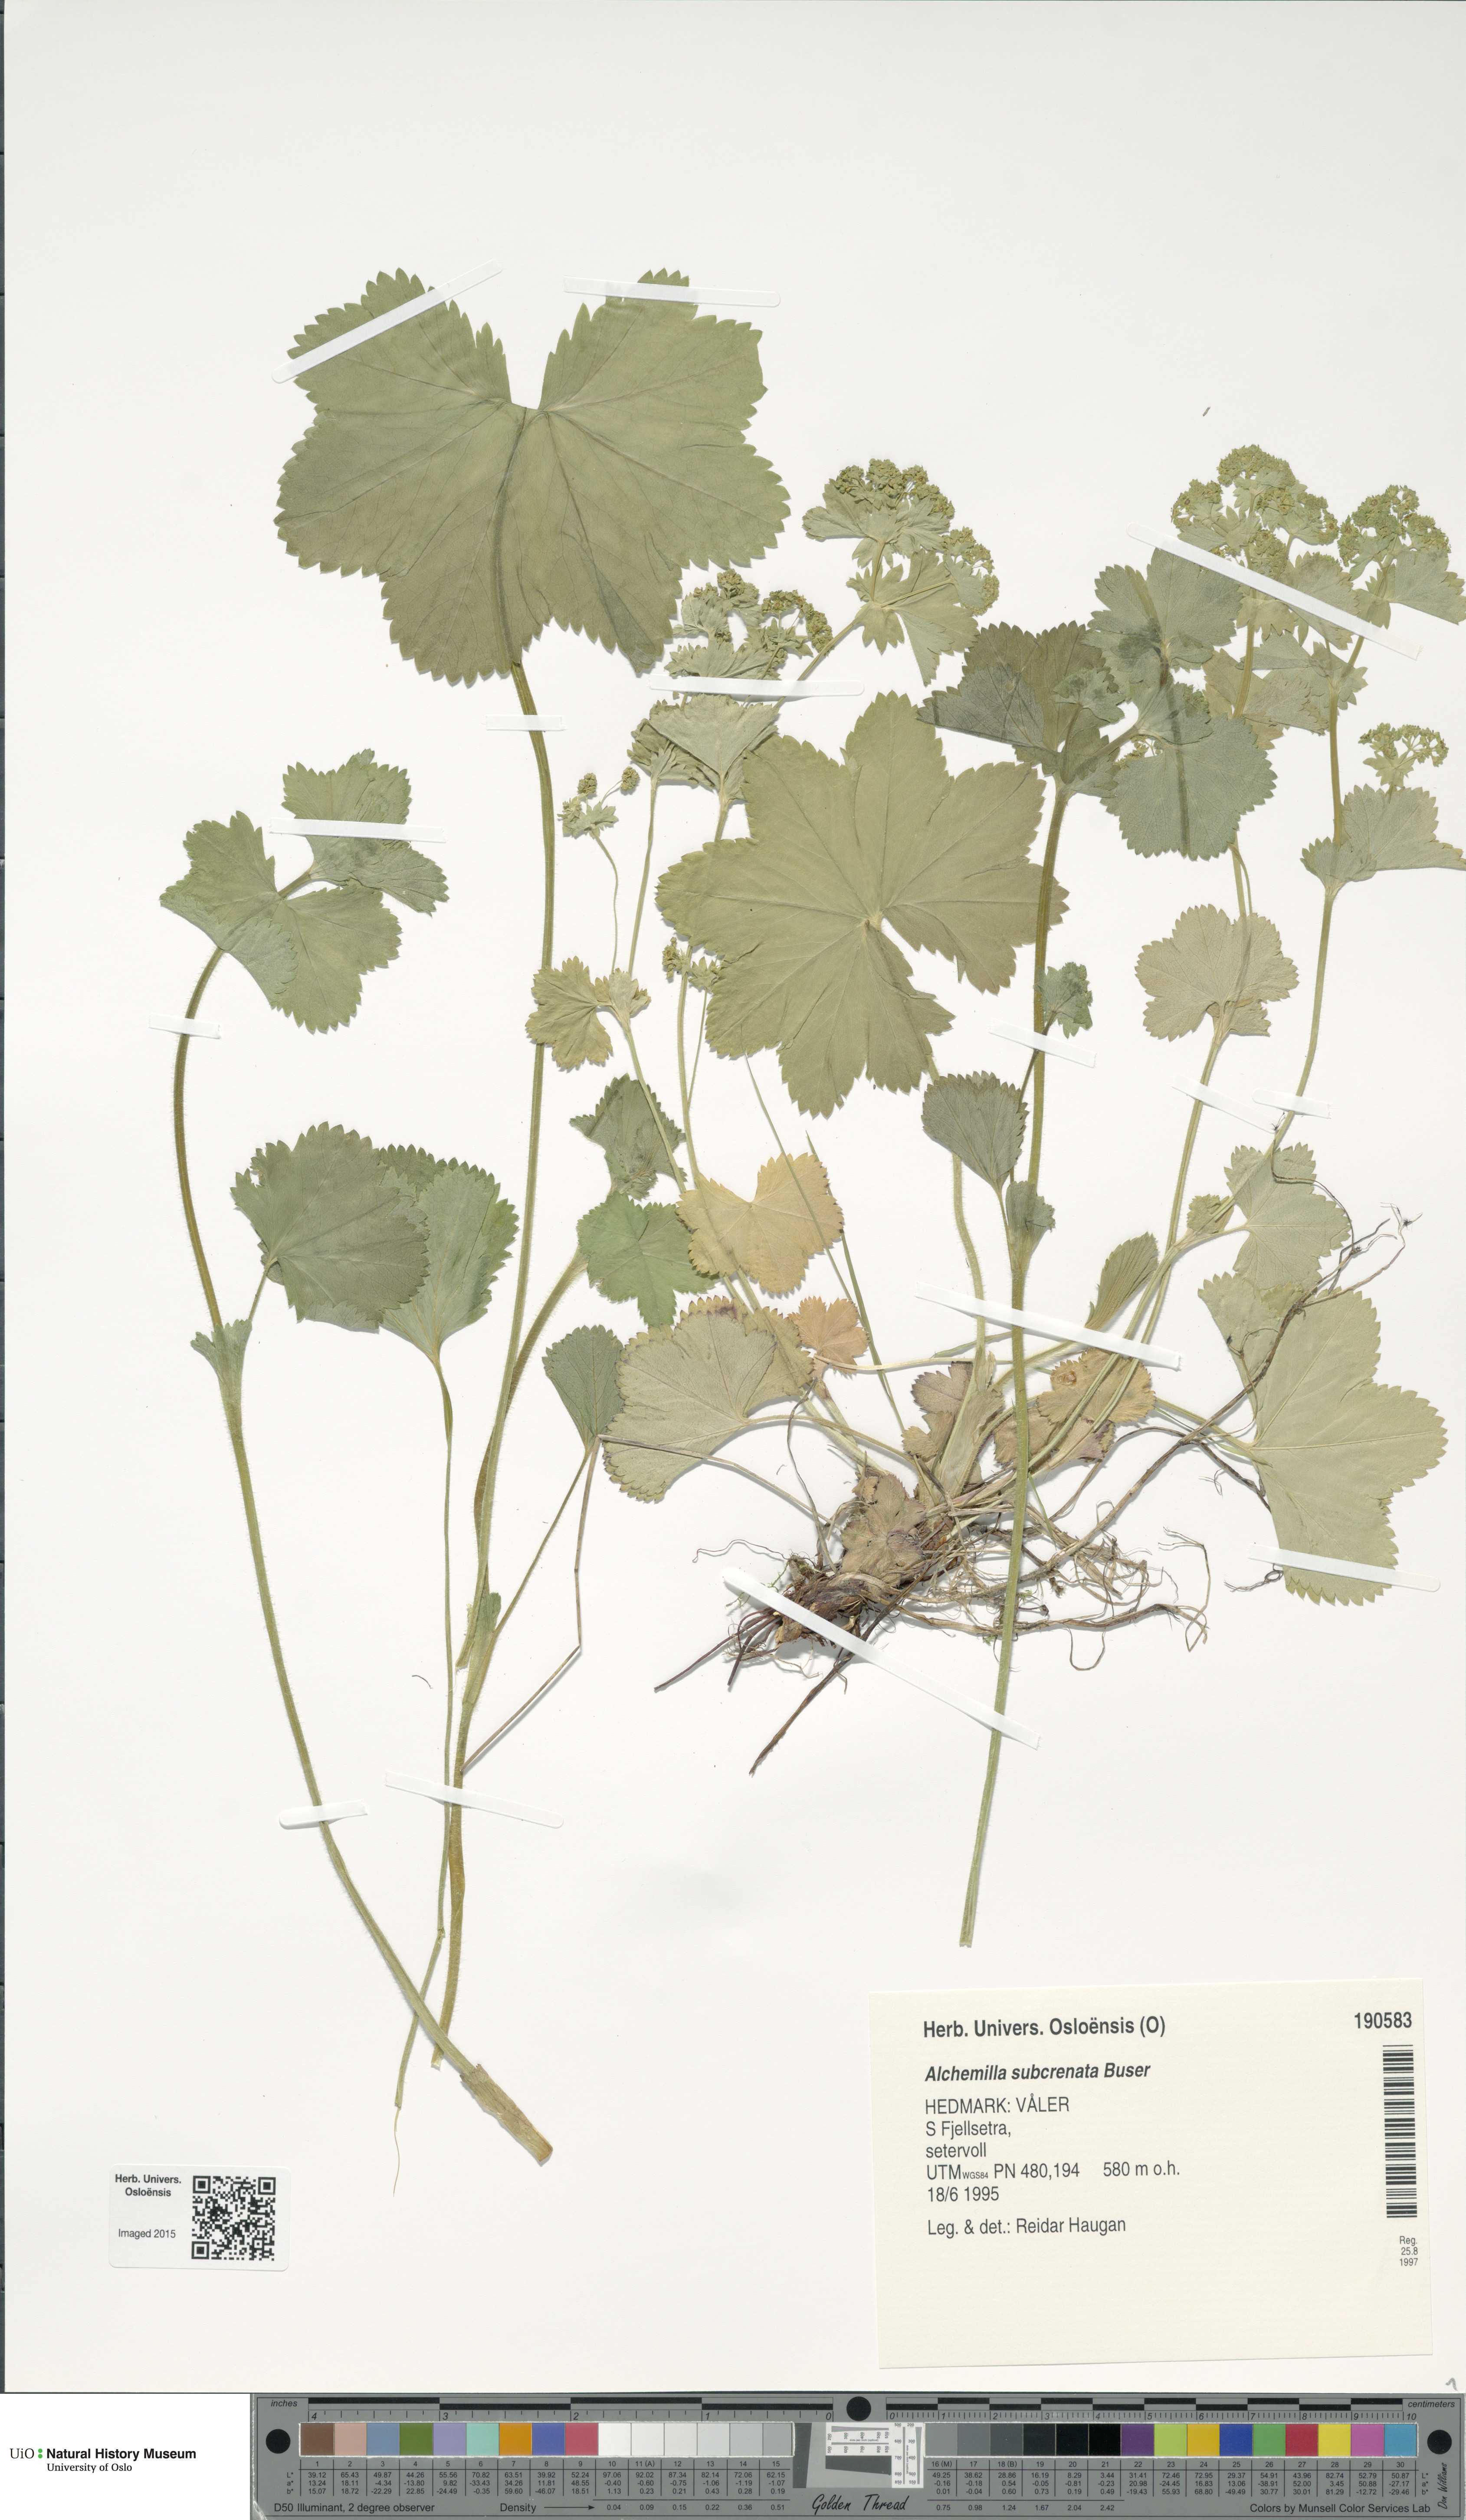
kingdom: Plantae
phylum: Tracheophyta
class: Magnoliopsida
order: Rosales
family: Rosaceae
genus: Alchemilla
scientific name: Alchemilla subcrenata
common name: Broadtooth lady's mantle
